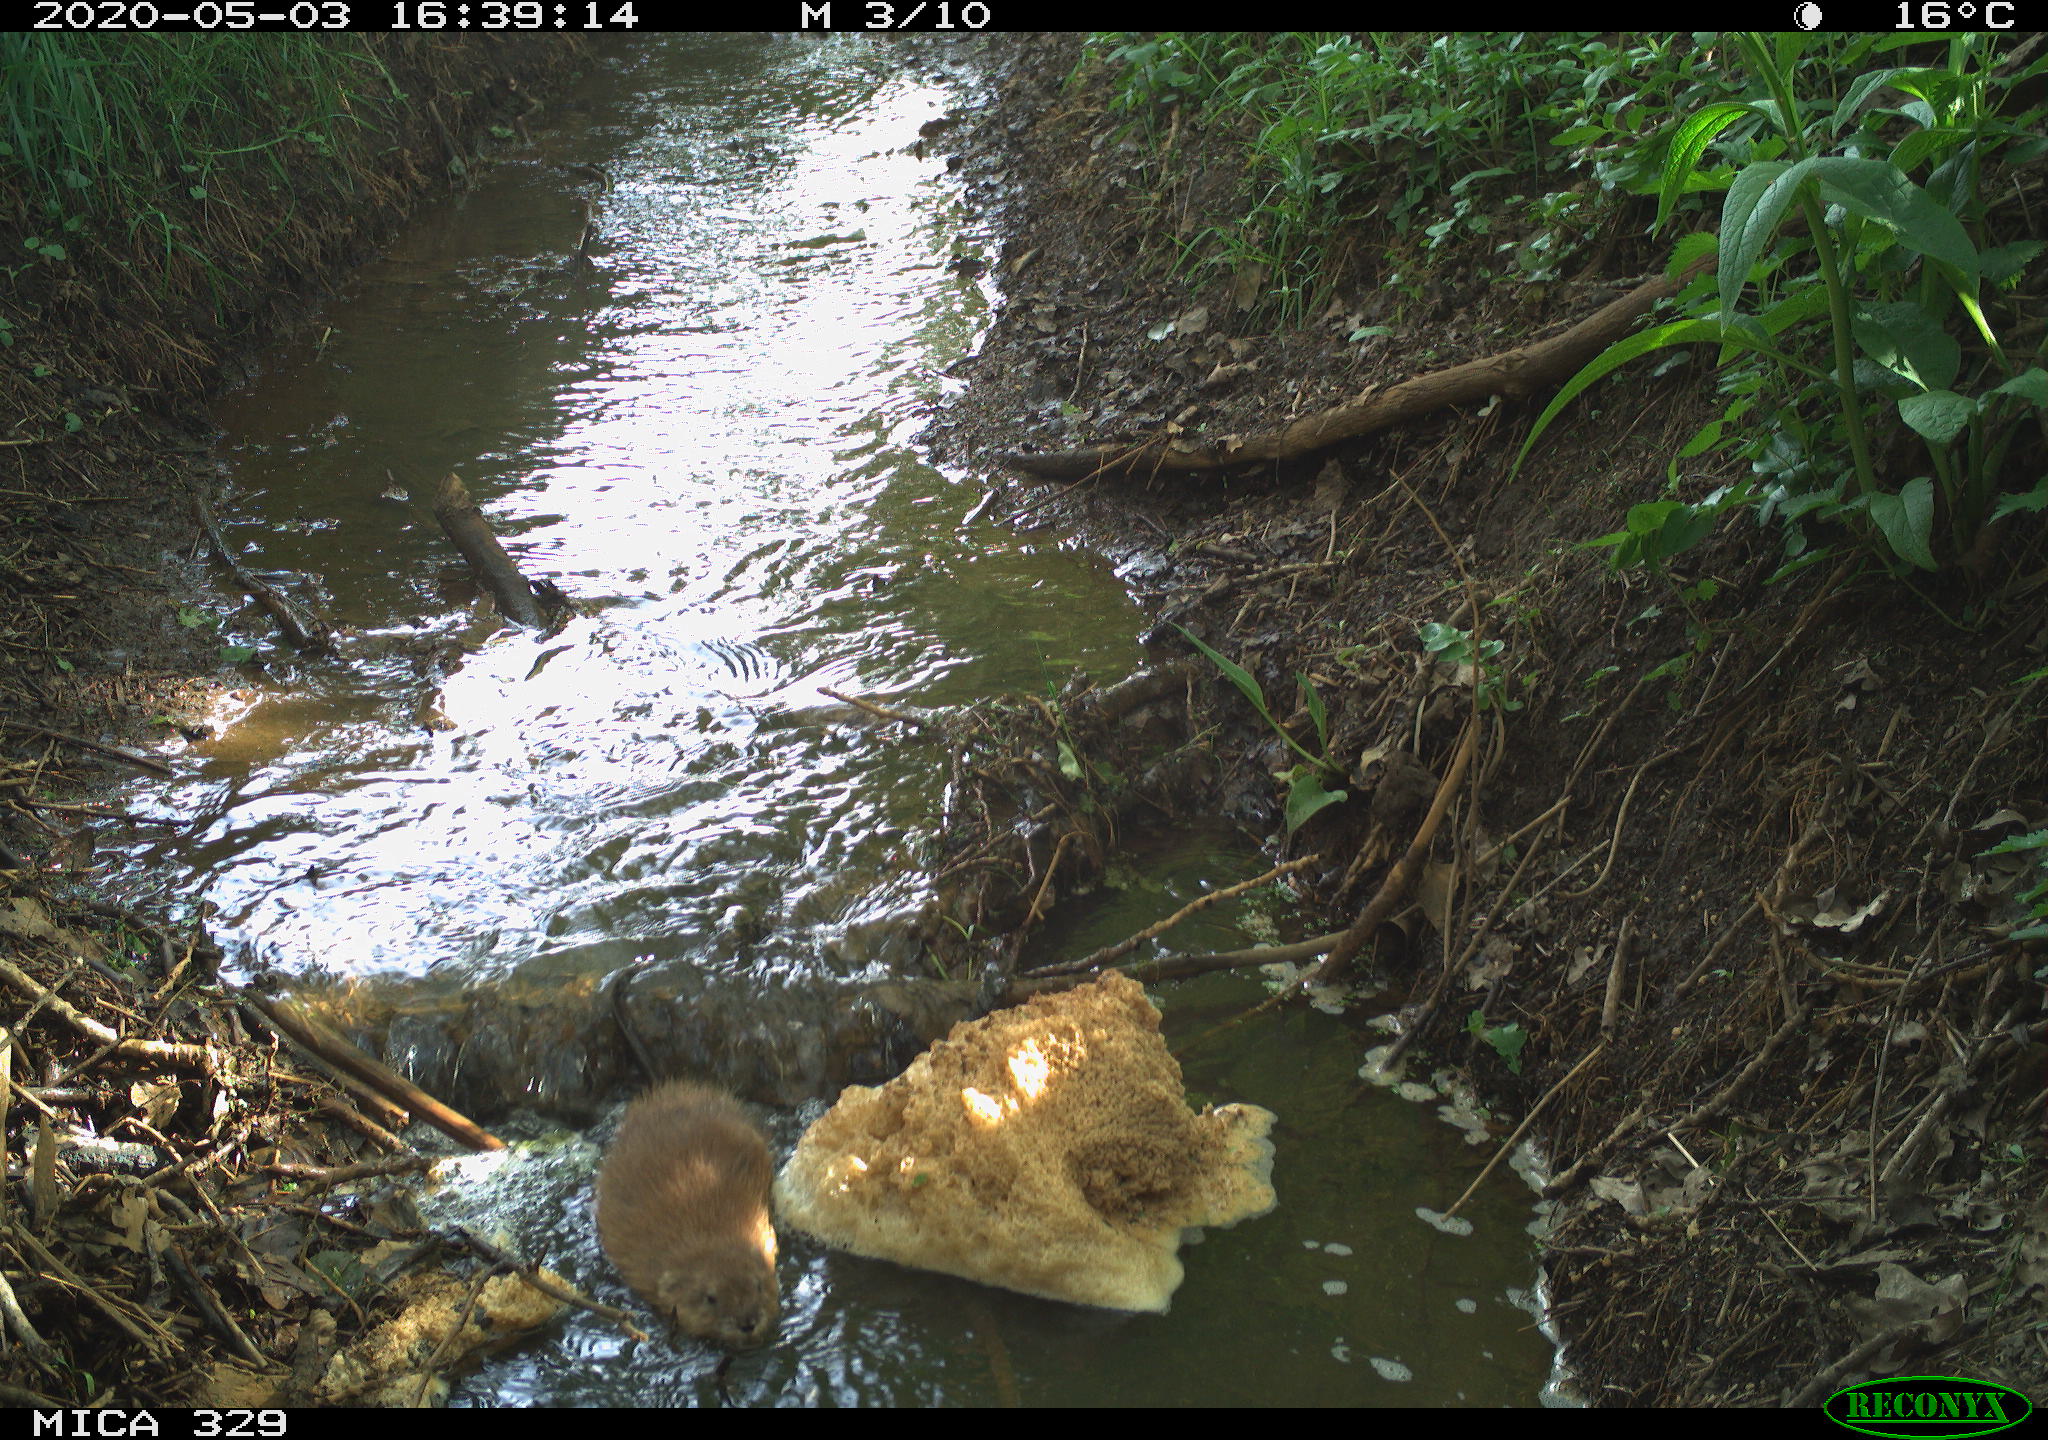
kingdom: Animalia
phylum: Chordata
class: Mammalia
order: Rodentia
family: Cricetidae
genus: Ondatra
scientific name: Ondatra zibethicus
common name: Muskrat
